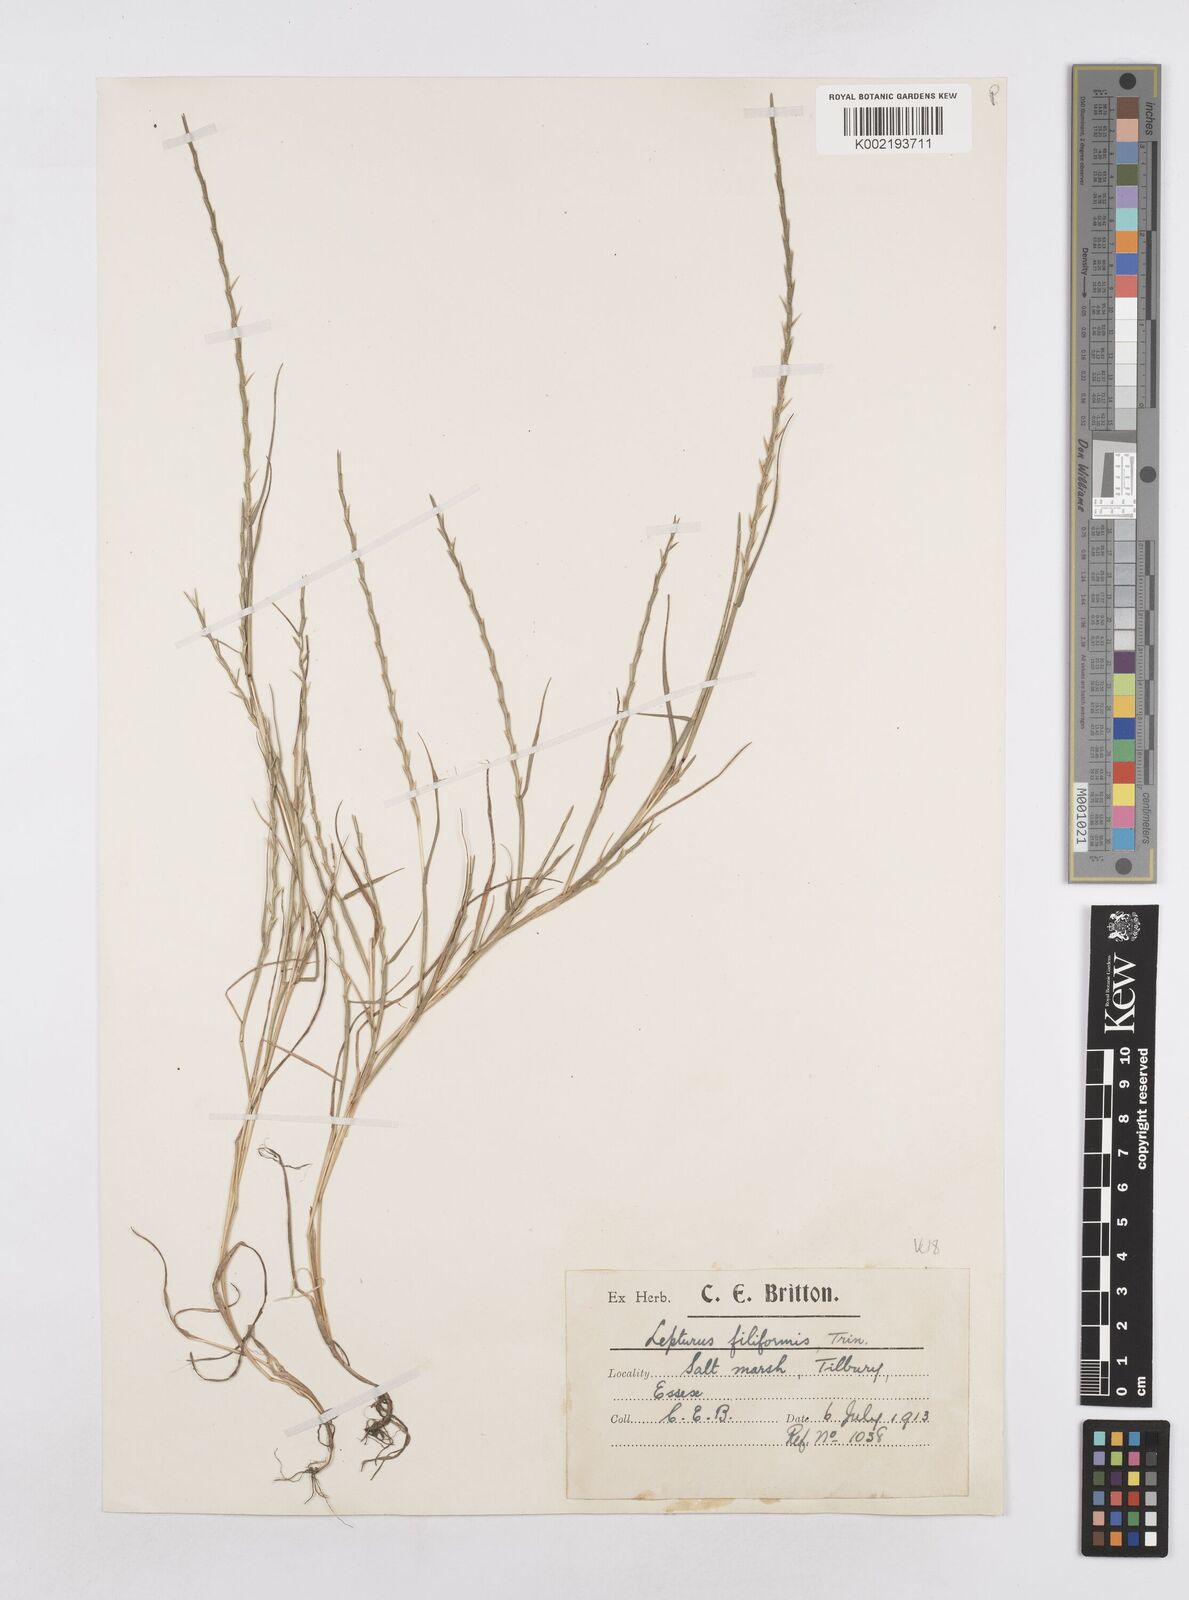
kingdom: Plantae
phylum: Tracheophyta
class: Liliopsida
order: Poales
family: Poaceae
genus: Parapholis
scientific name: Parapholis strigosa
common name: Hard-grass
